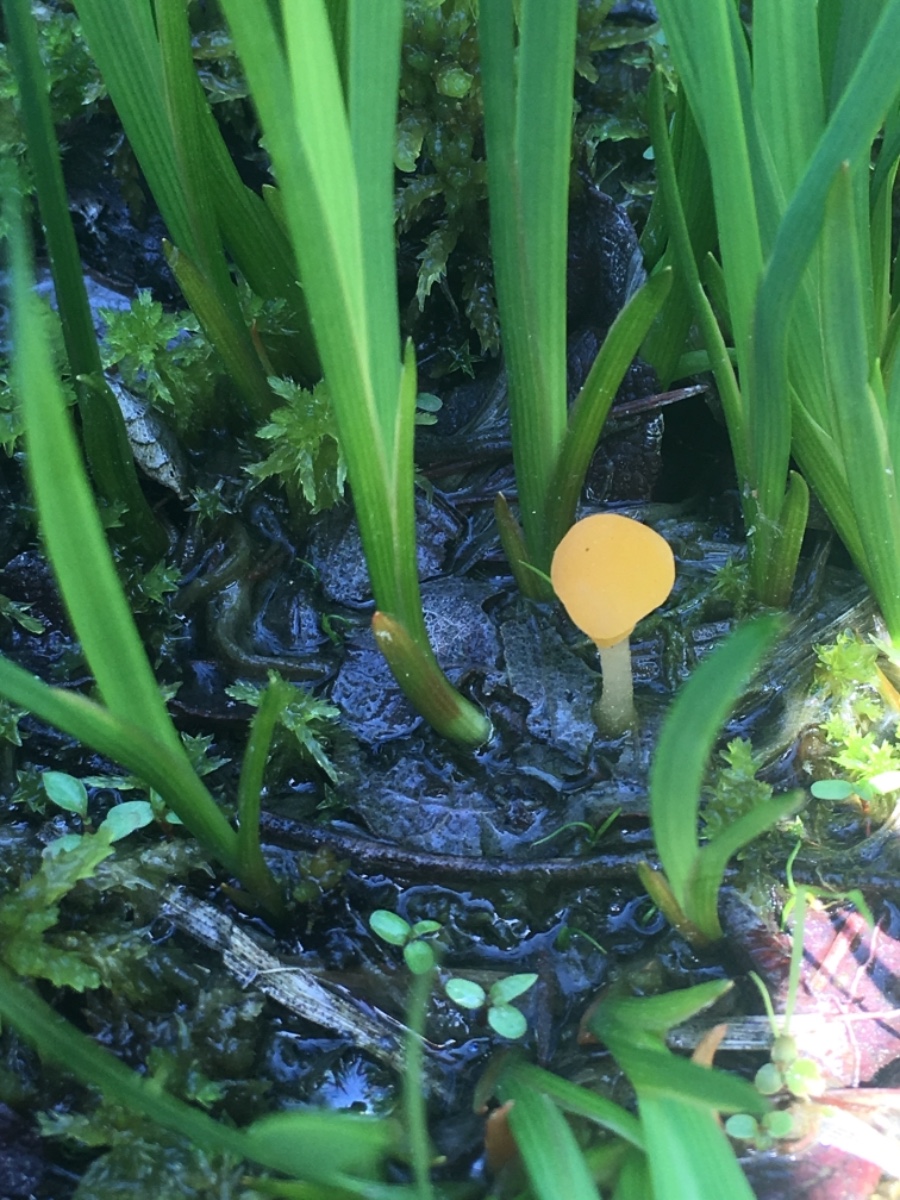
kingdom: Fungi
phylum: Ascomycota
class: Leotiomycetes
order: Helotiales
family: Cenangiaceae
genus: Mitrula
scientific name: Mitrula paludosa
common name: gul nøkketunge
